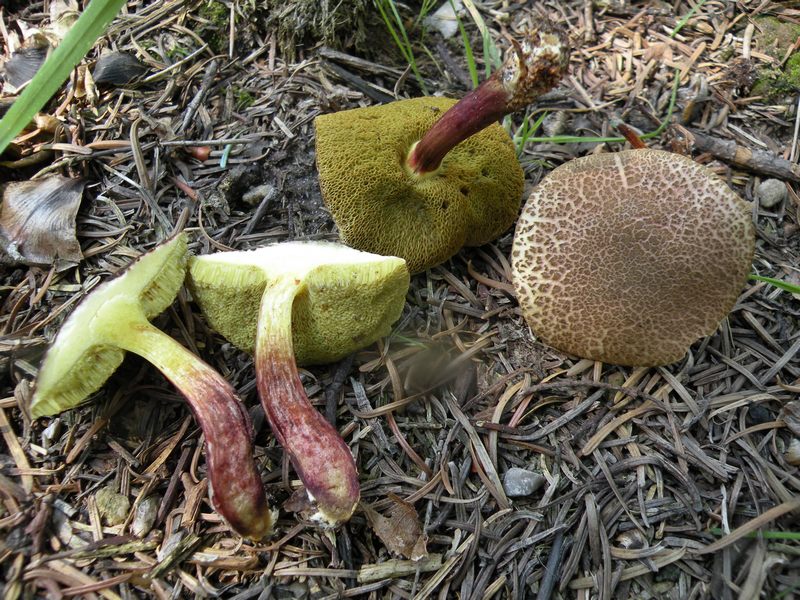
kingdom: Fungi
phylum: Basidiomycota
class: Agaricomycetes
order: Boletales
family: Boletaceae
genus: Xerocomellus
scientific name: Xerocomellus chrysenteron
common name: rødsprukken rørhat
